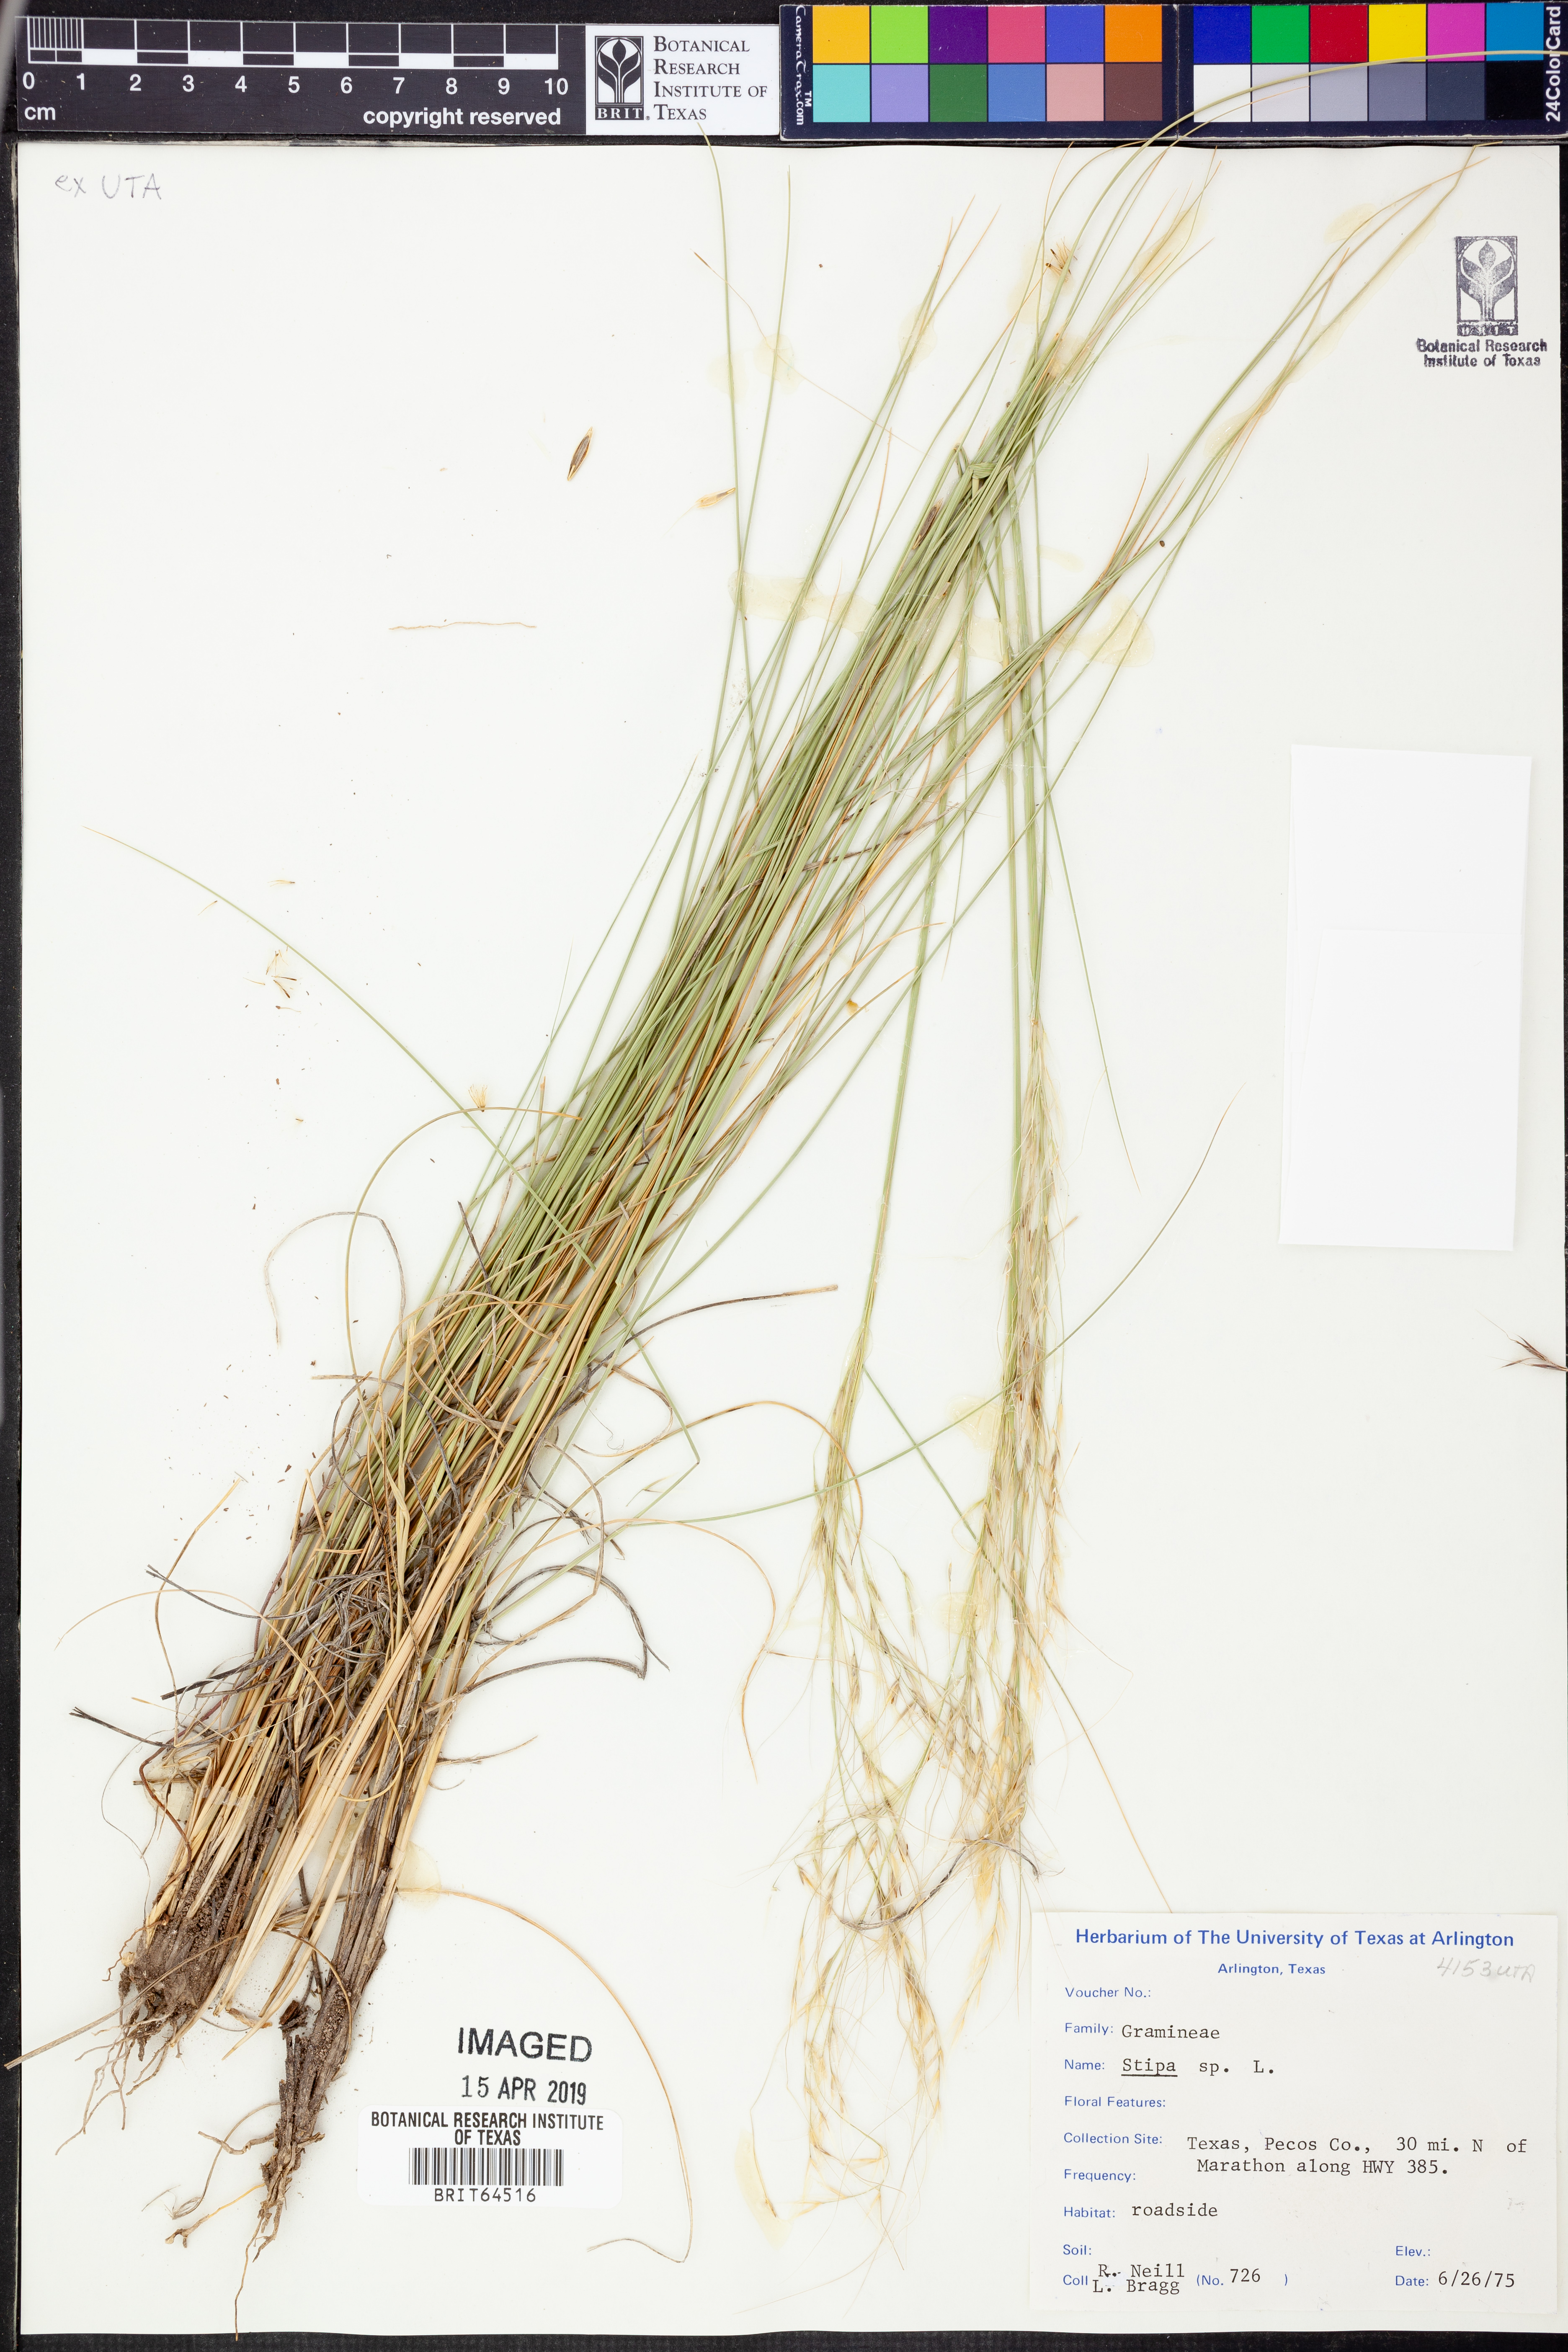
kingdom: Plantae
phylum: Tracheophyta
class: Liliopsida
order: Poales
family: Poaceae
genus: Stipa
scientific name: Stipa
